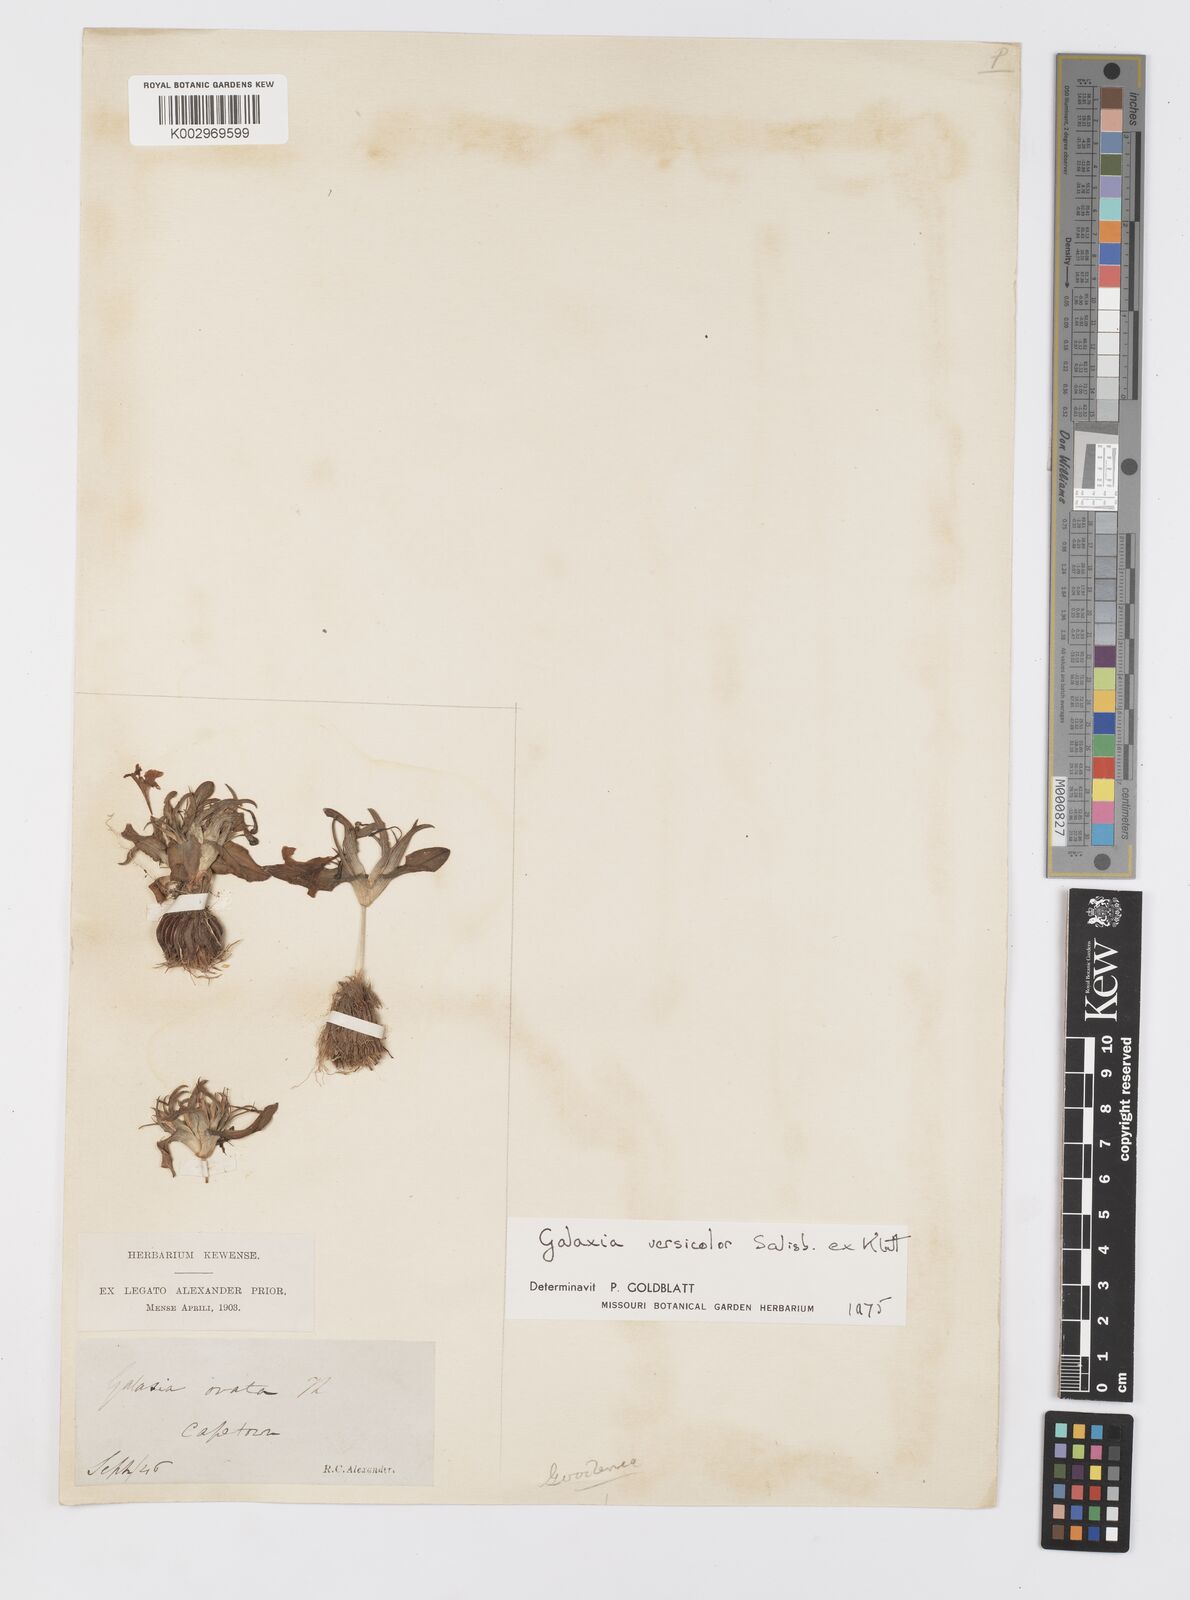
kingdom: Plantae
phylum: Tracheophyta
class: Liliopsida
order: Asparagales
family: Iridaceae
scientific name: Iridaceae
